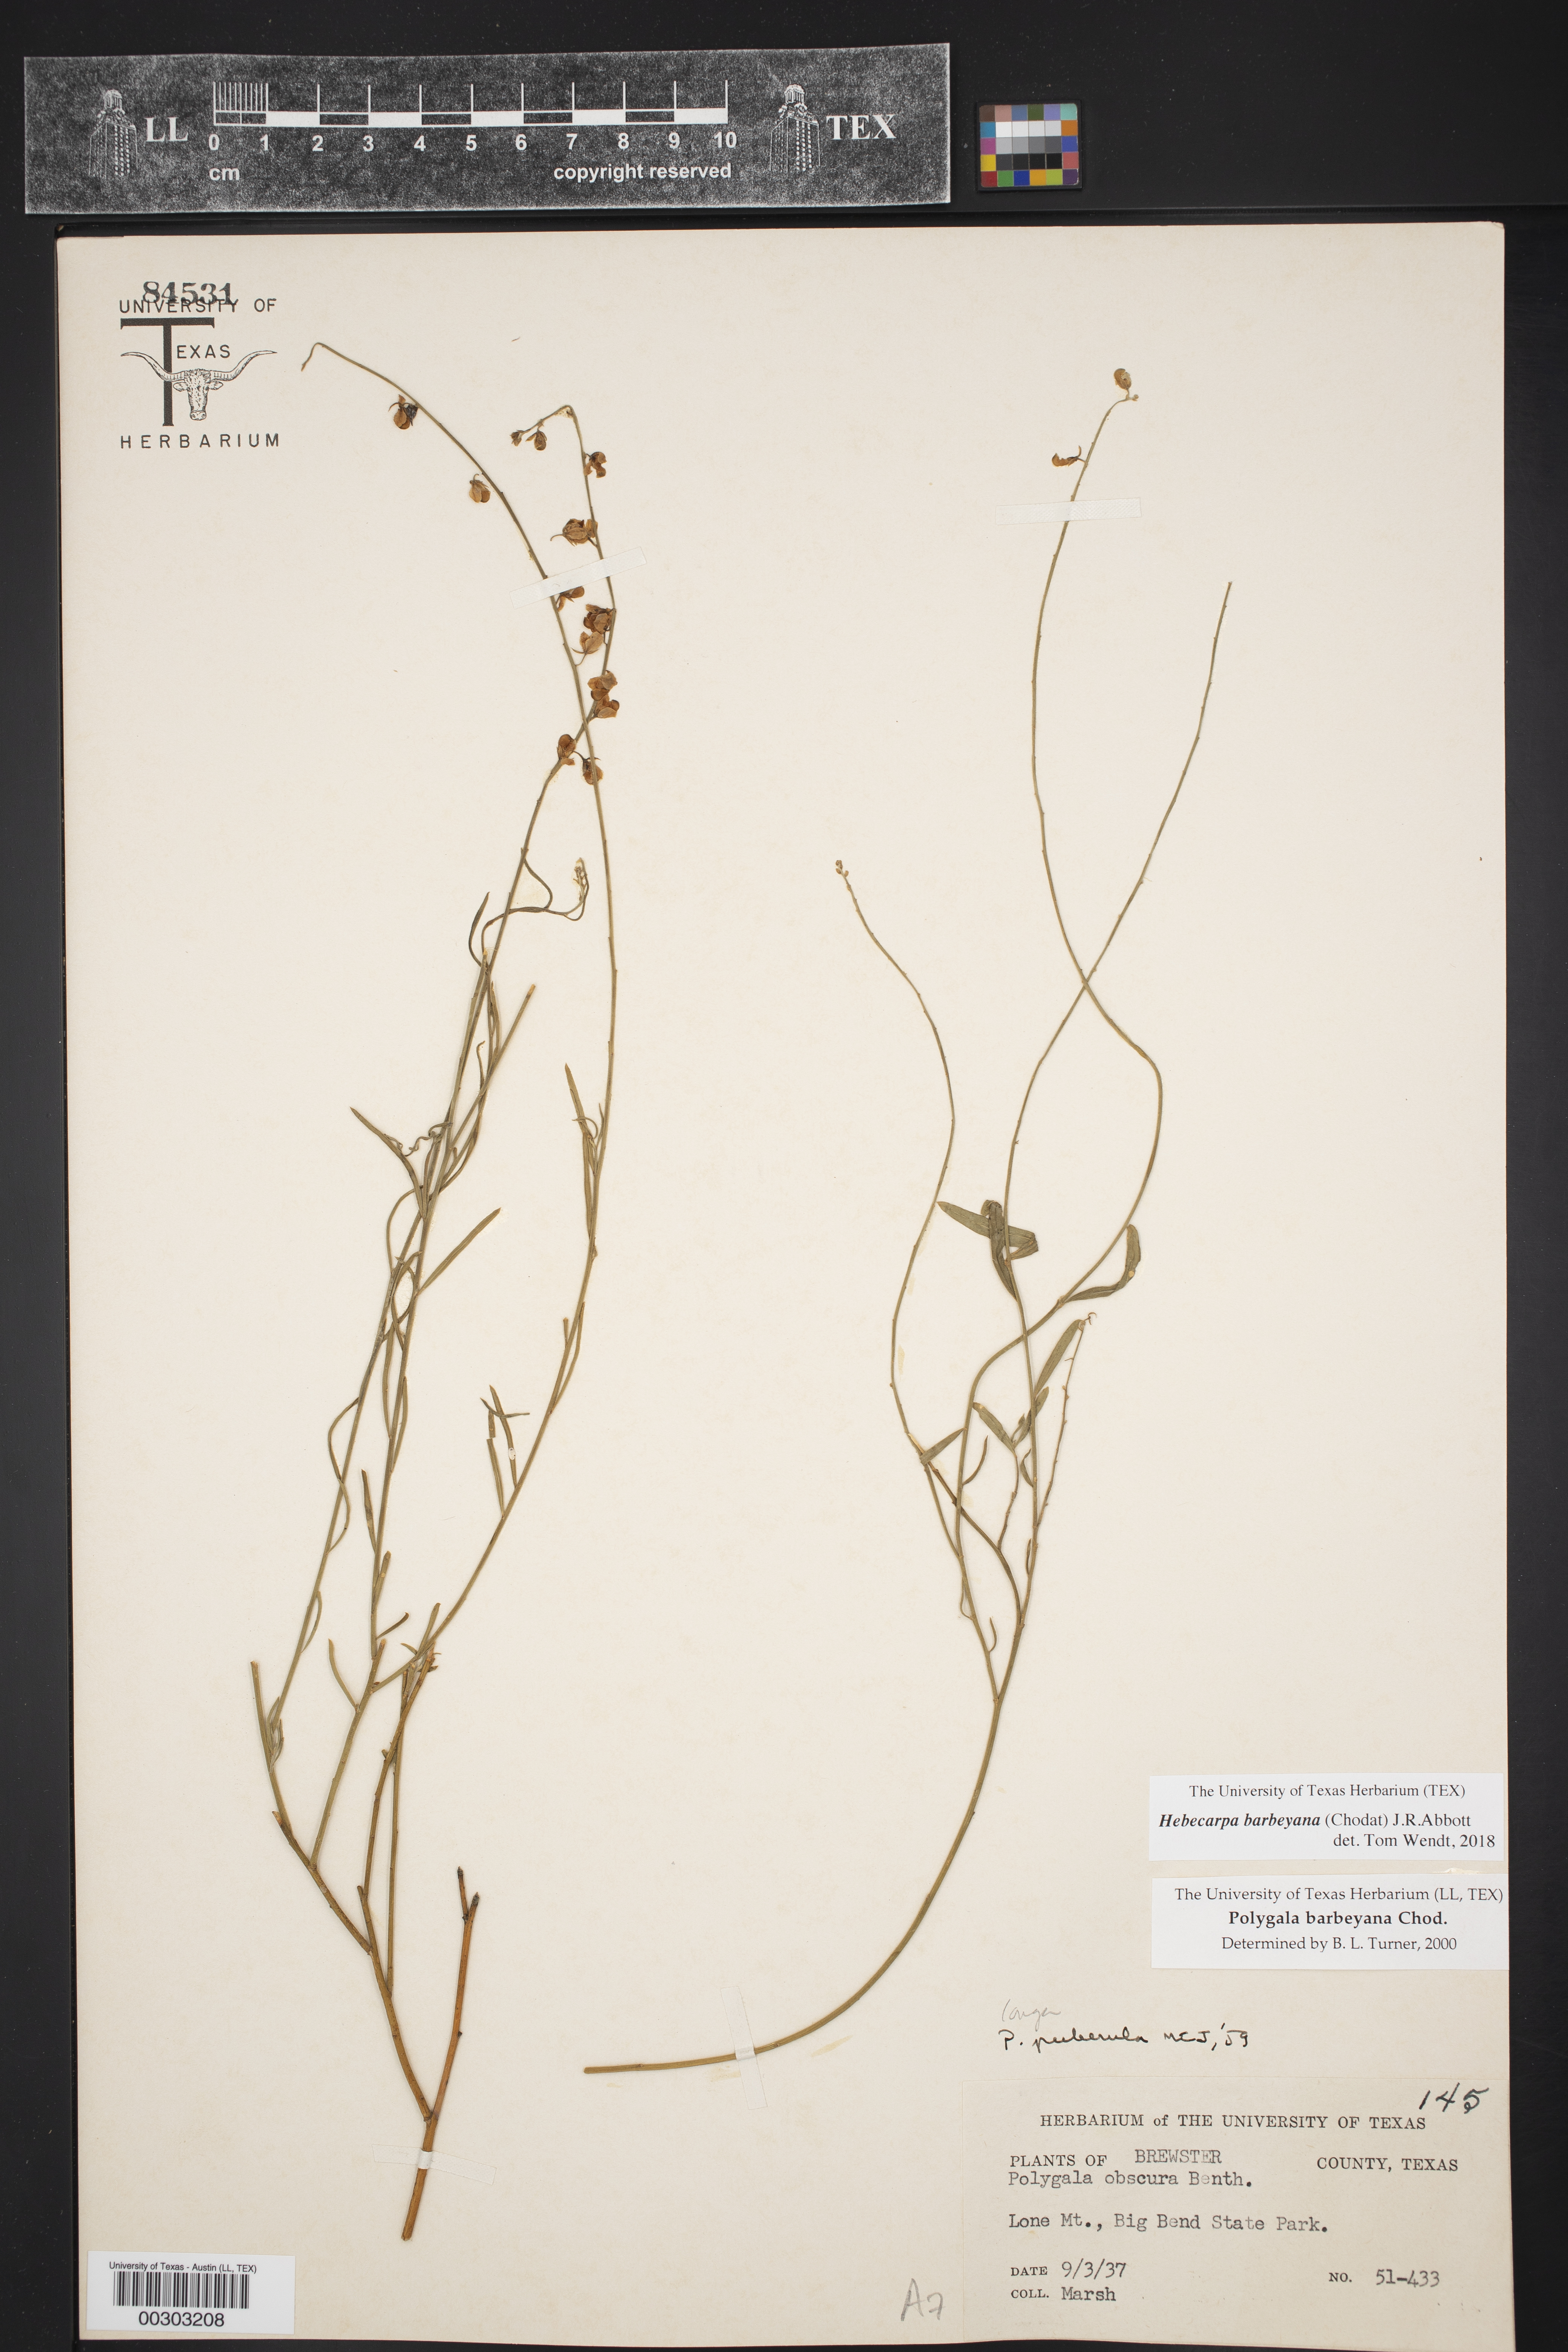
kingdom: Plantae
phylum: Tracheophyta
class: Magnoliopsida
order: Fabales
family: Polygalaceae
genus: Hebecarpa
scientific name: Hebecarpa barbeyana
